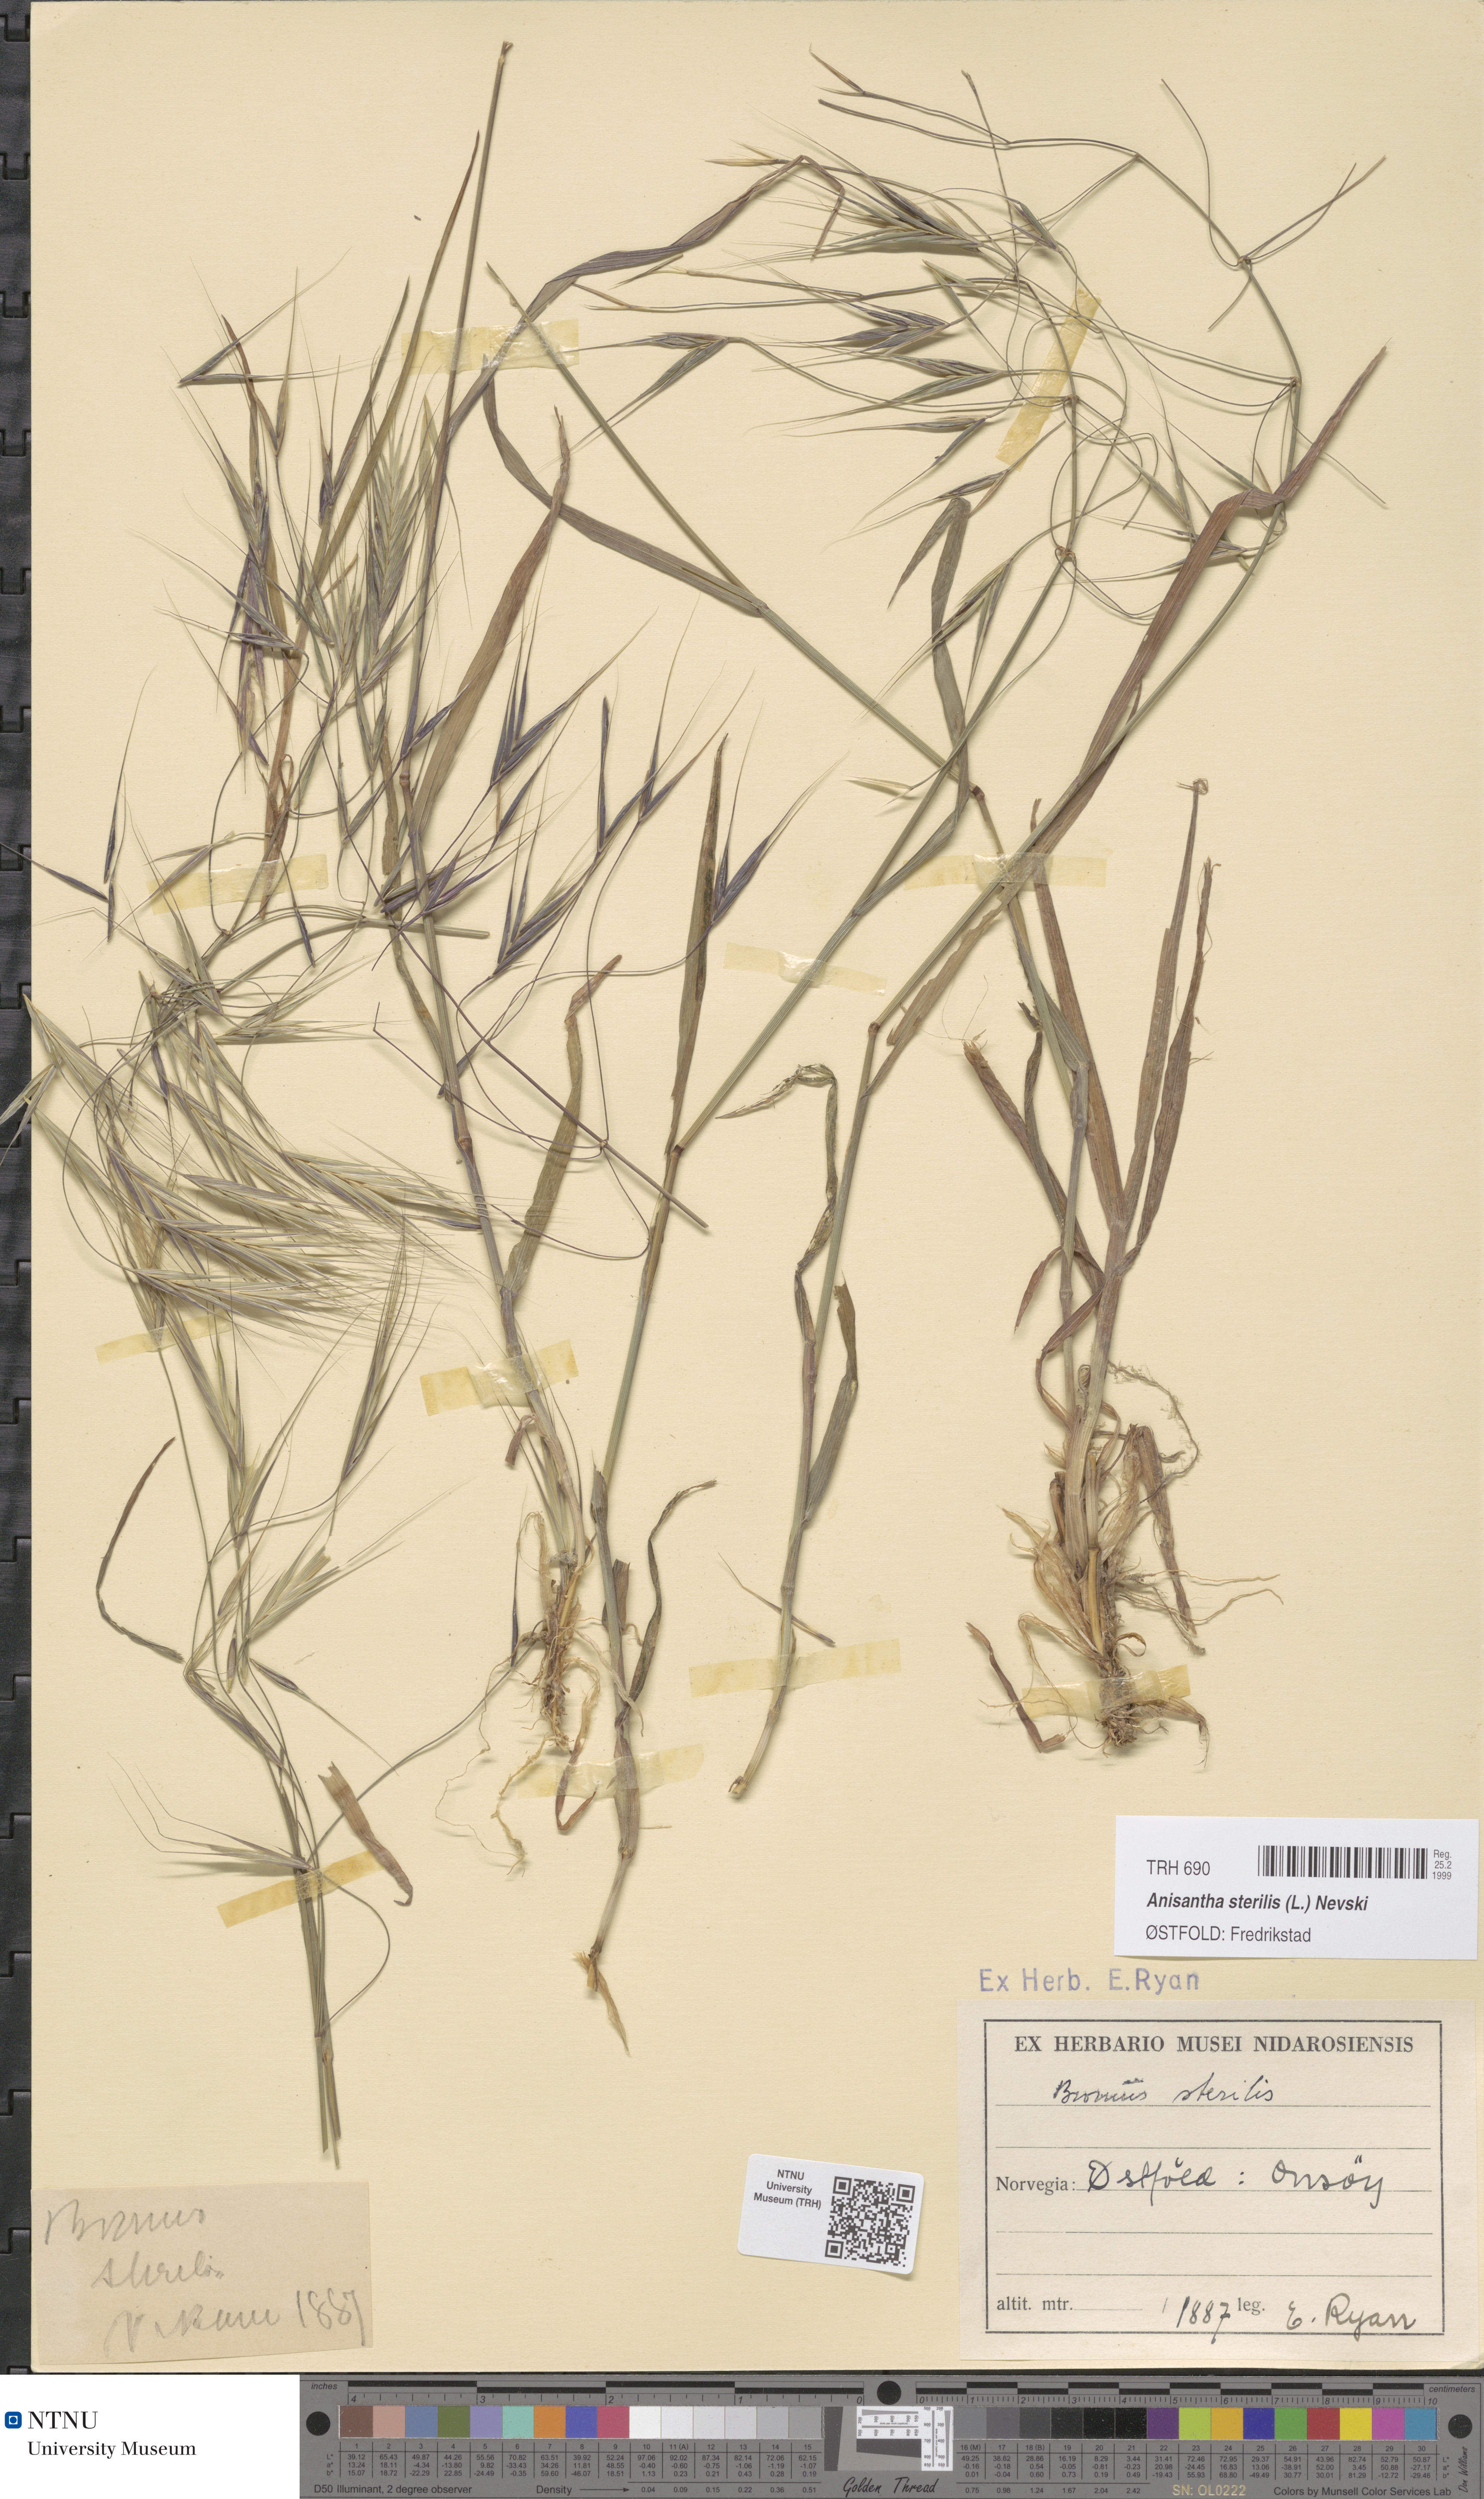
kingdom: Plantae
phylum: Tracheophyta
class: Liliopsida
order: Poales
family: Poaceae
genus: Bromus
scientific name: Bromus sterilis
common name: Poverty brome
